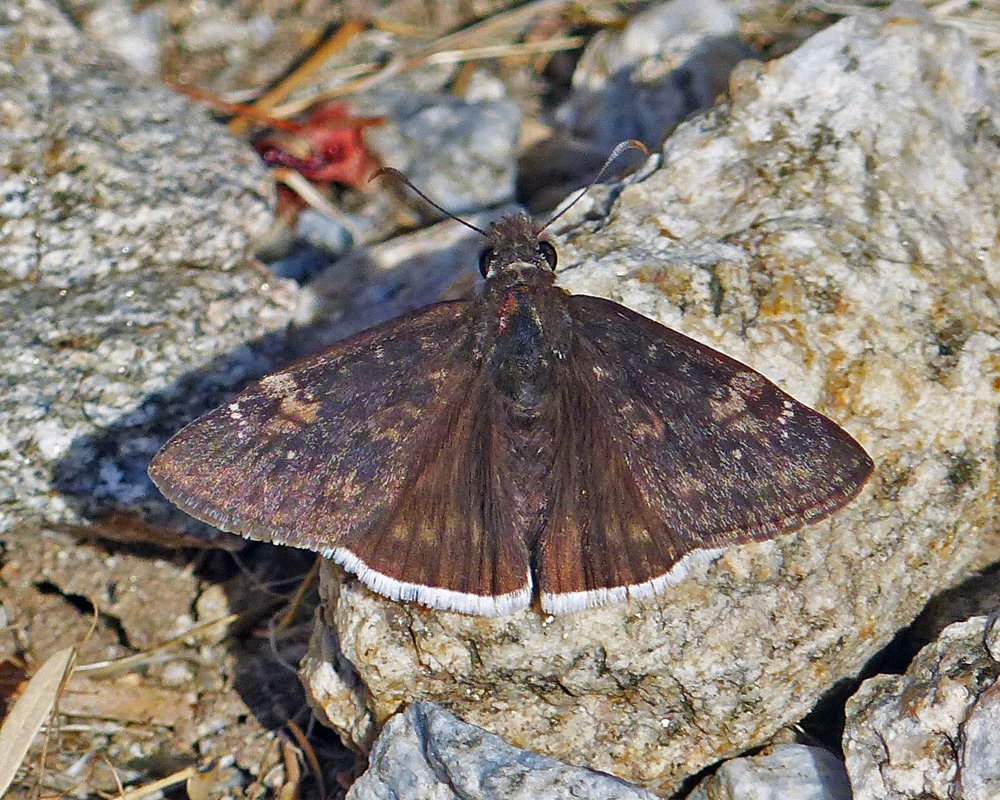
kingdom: Animalia
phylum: Arthropoda
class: Insecta
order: Lepidoptera
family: Hesperiidae
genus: Erynnis
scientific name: Erynnis funeralis
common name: Funereal Duskywing
